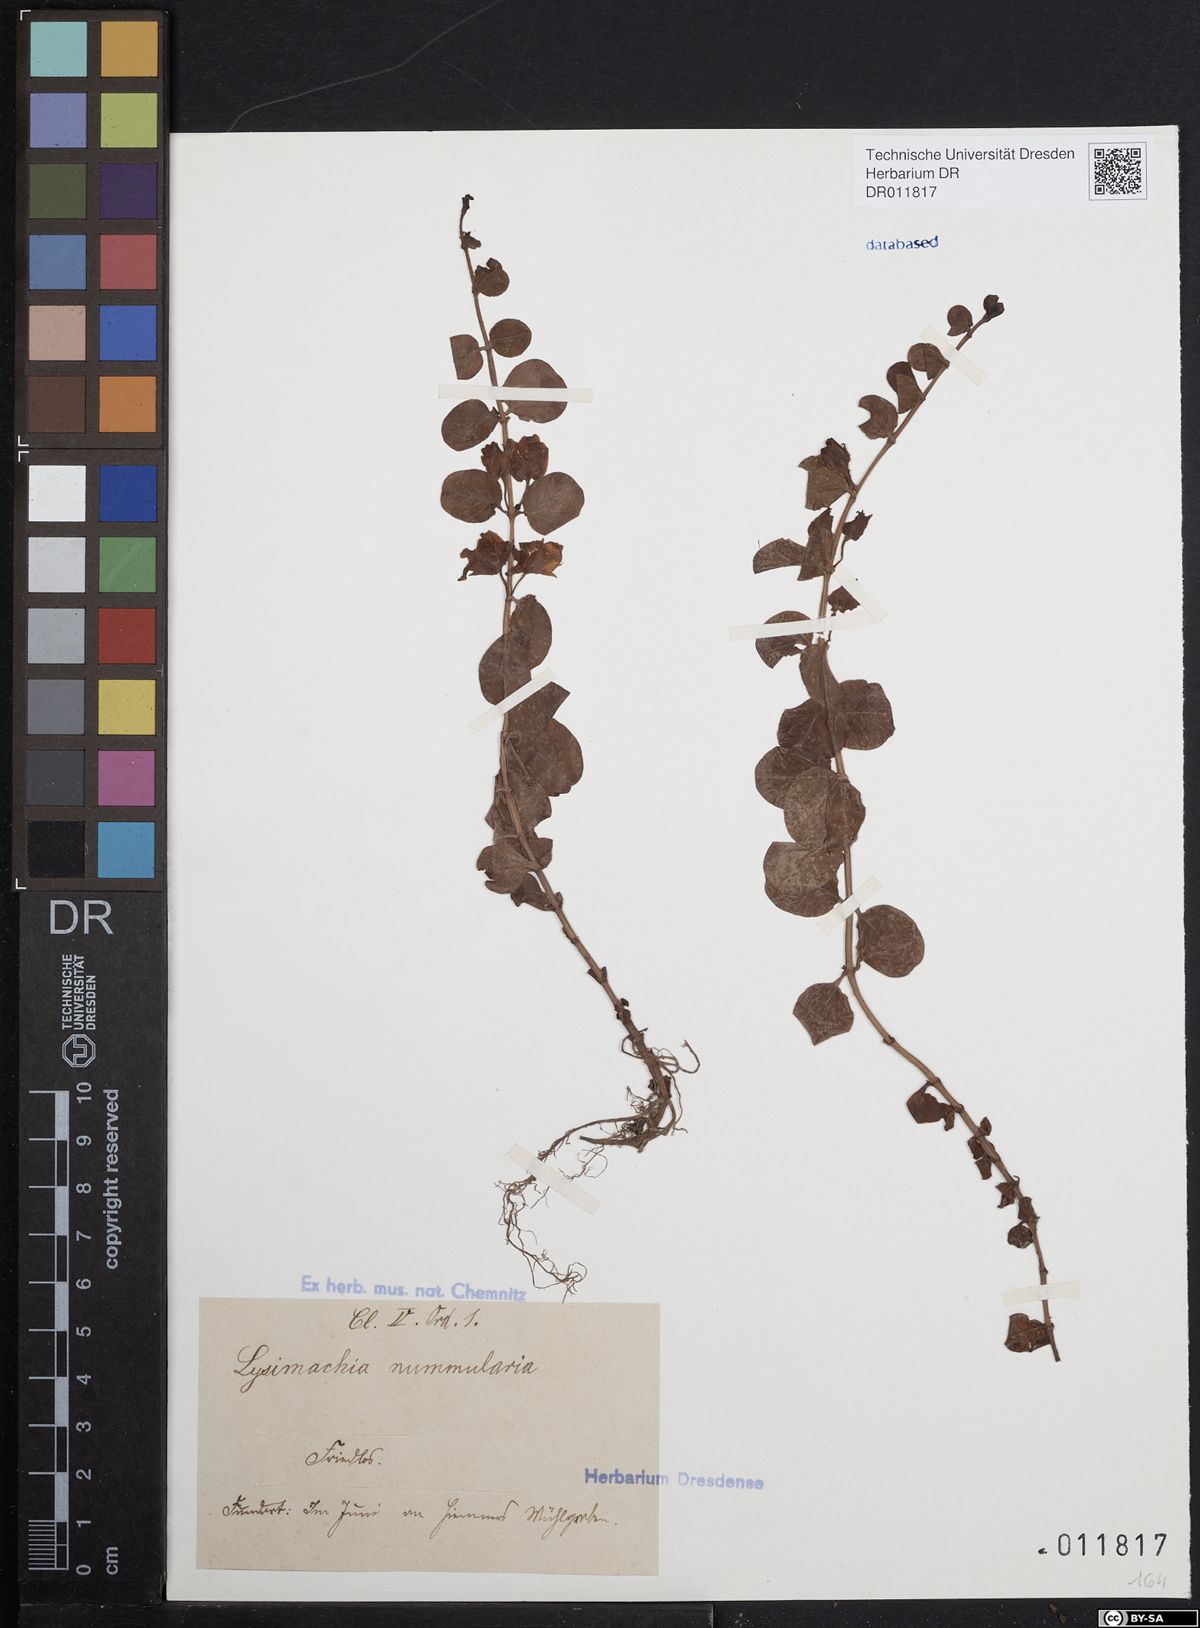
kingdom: Plantae
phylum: Tracheophyta
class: Magnoliopsida
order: Ericales
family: Primulaceae
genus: Lysimachia
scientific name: Lysimachia nummularia
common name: Moneywort
